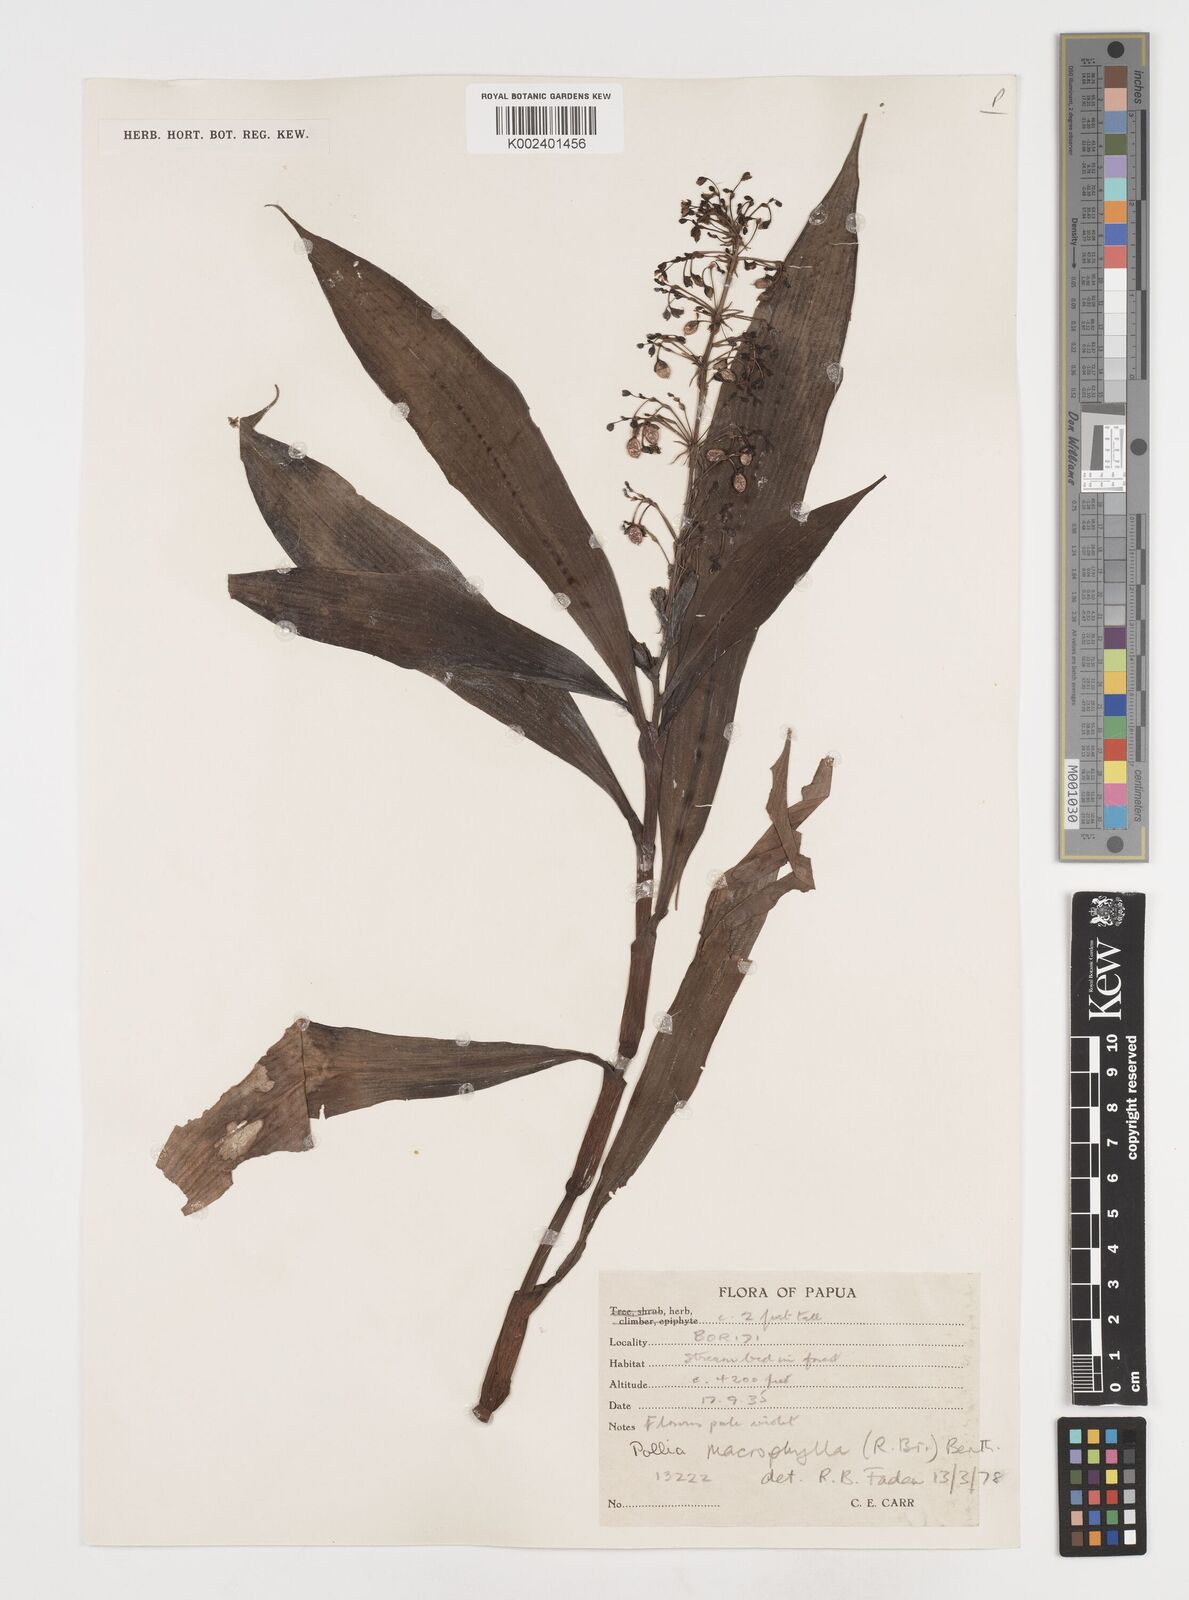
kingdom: Plantae
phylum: Tracheophyta
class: Liliopsida
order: Commelinales
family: Commelinaceae
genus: Pollia
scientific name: Pollia macrophylla
